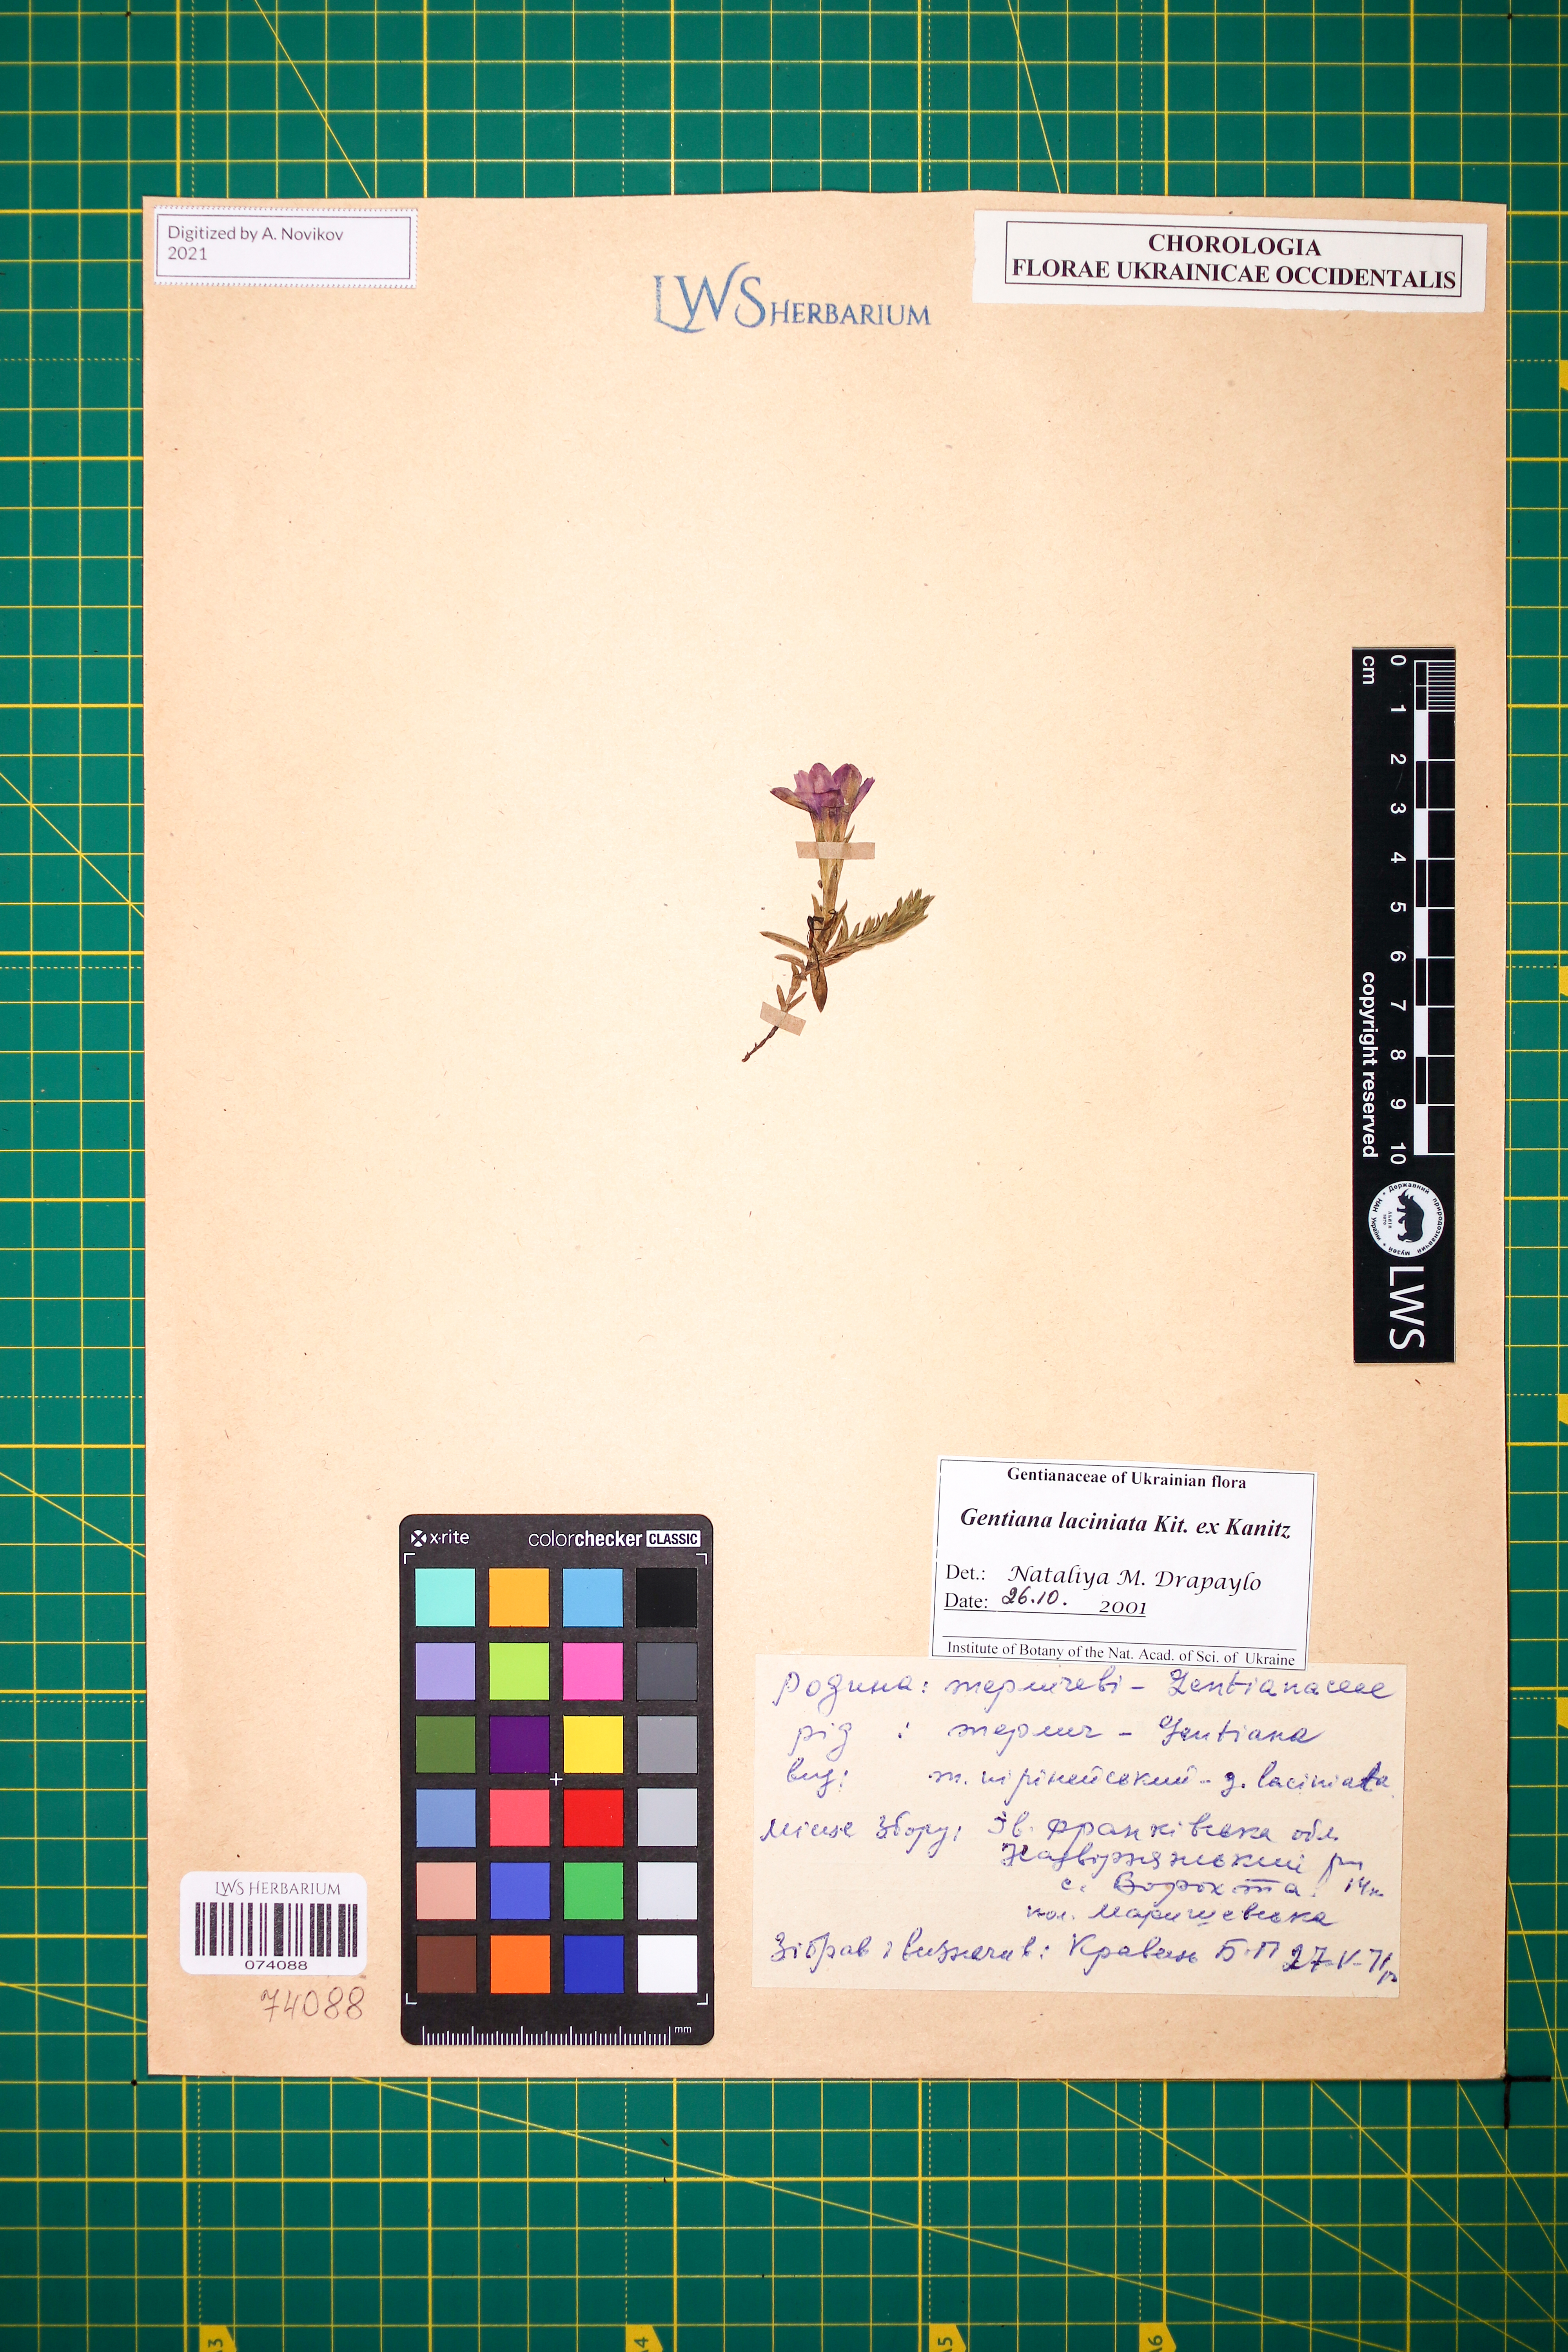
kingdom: Plantae
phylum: Tracheophyta
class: Magnoliopsida
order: Gentianales
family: Gentianaceae
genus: Gentiana
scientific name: Gentiana laciniata
